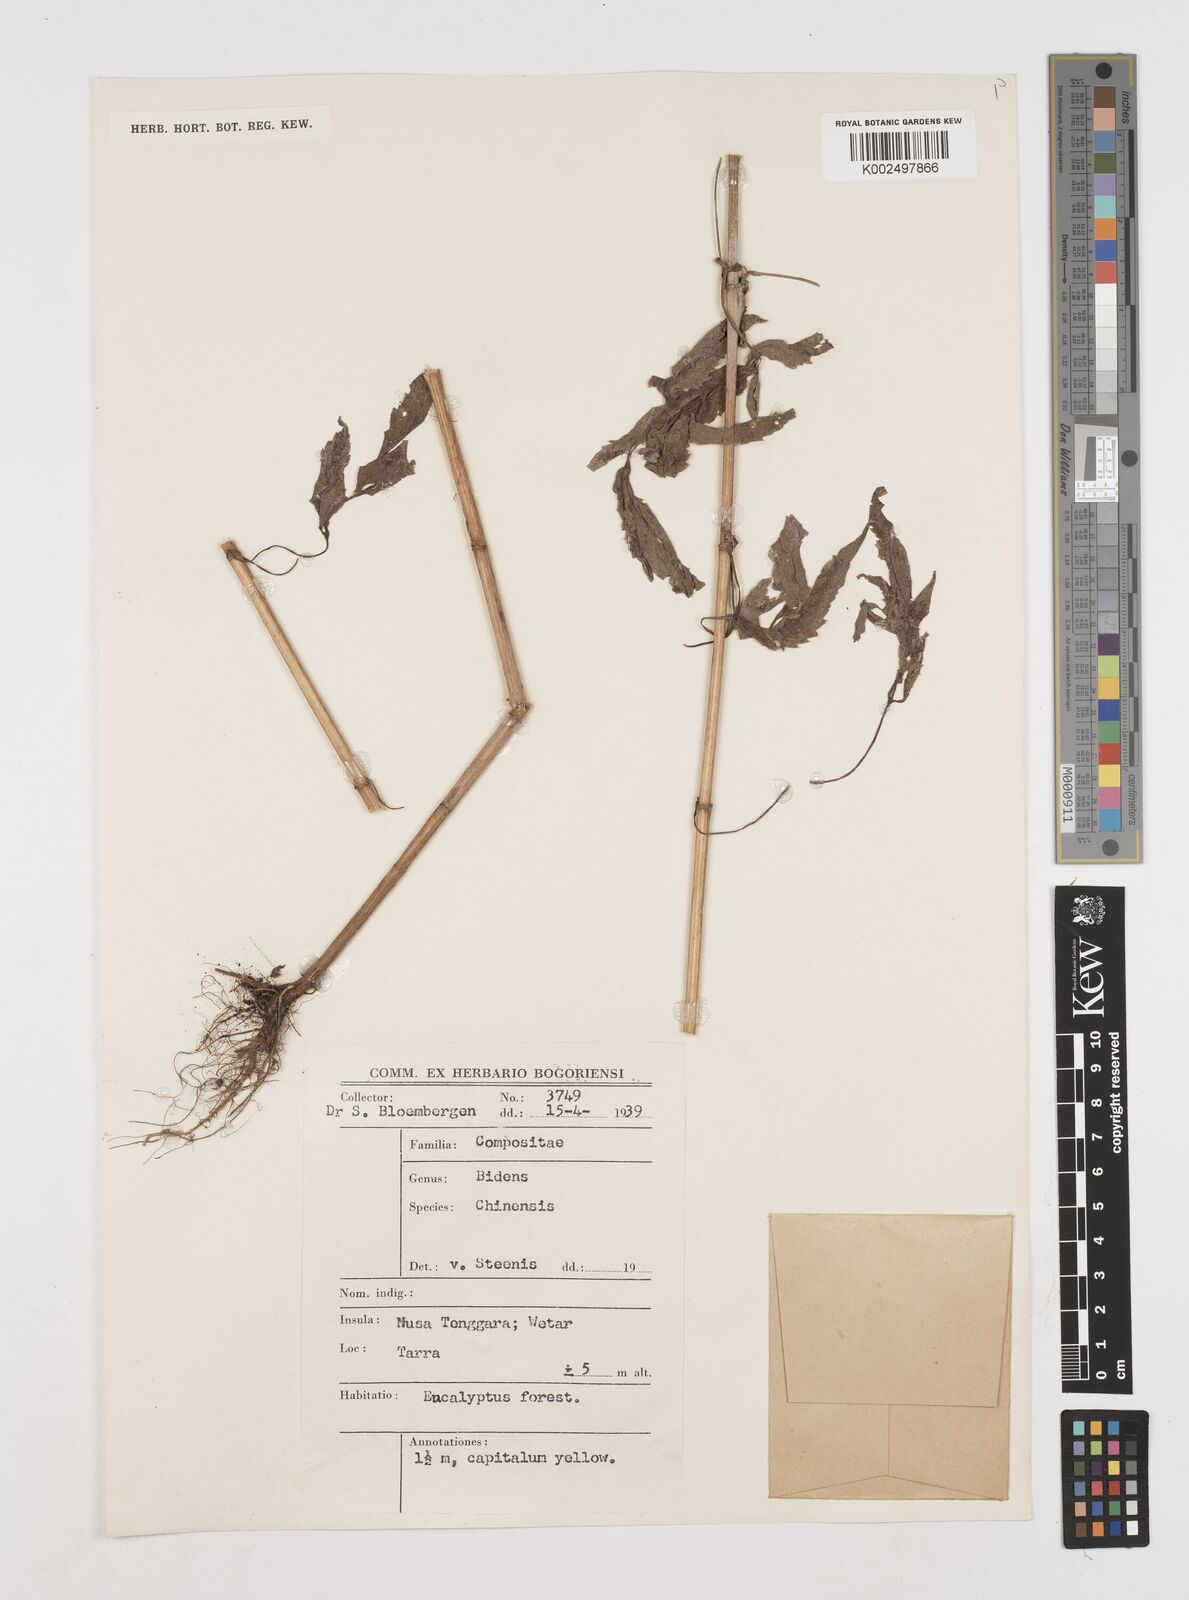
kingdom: Plantae
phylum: Tracheophyta
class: Magnoliopsida
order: Asterales
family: Asteraceae
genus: Bidens
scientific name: Bidens biternata
